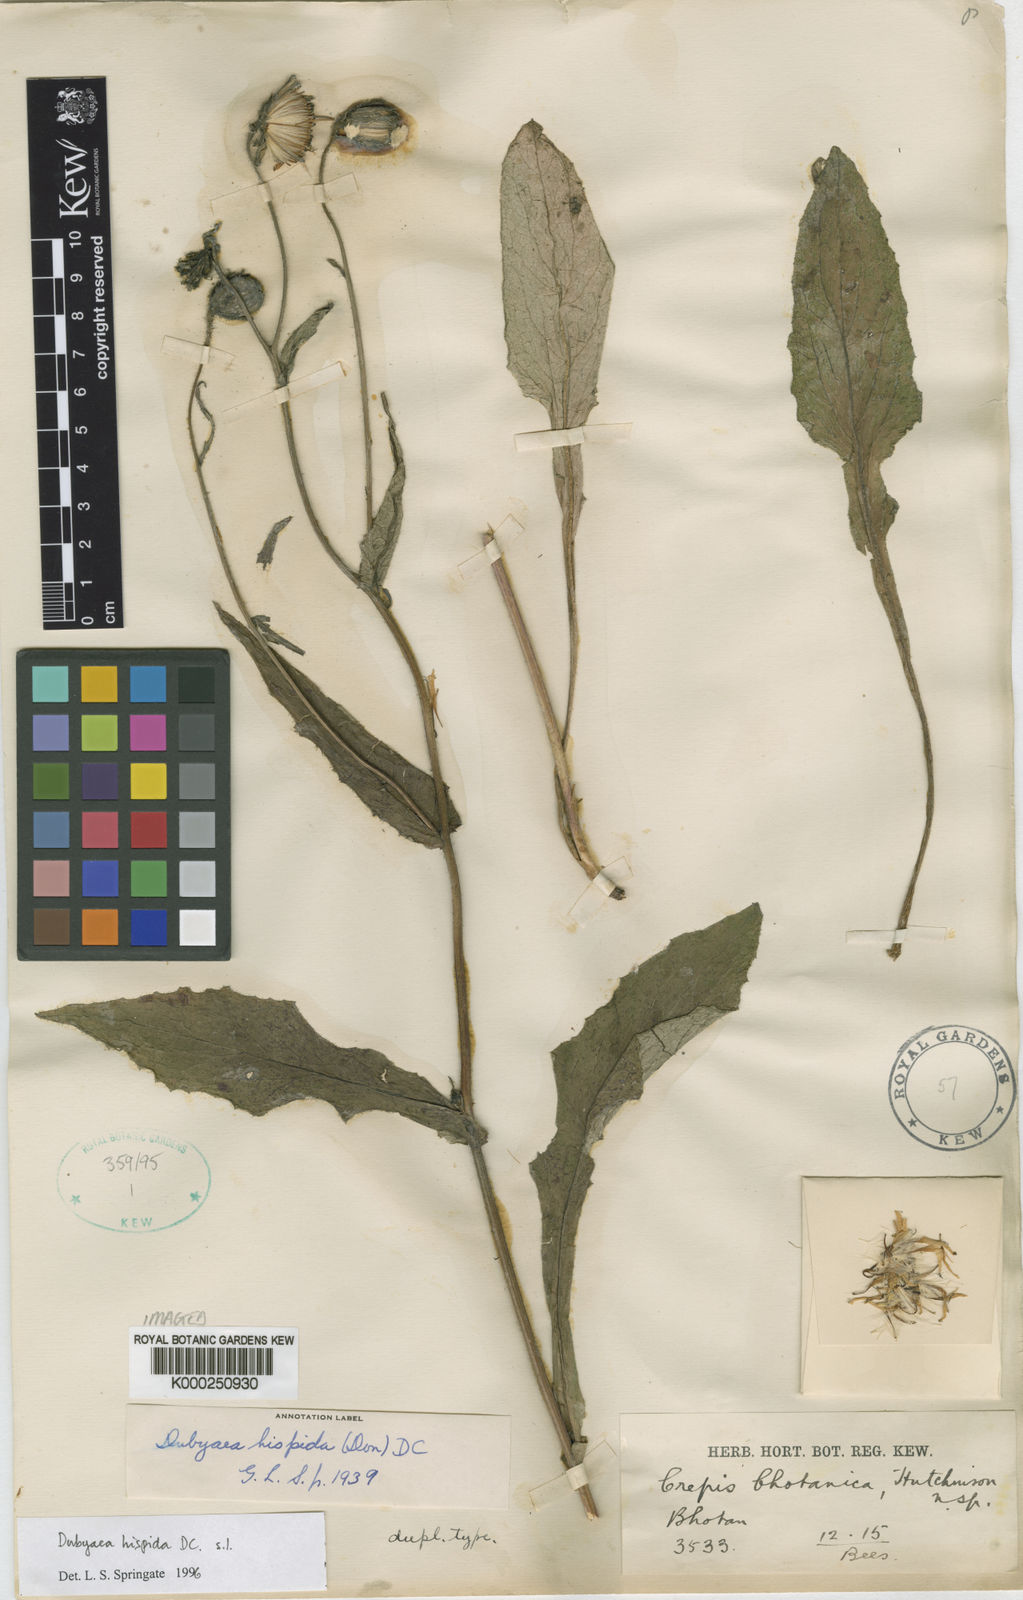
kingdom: Plantae
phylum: Tracheophyta
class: Magnoliopsida
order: Asterales
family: Asteraceae
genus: Dubyaea
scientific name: Dubyaea hispida
